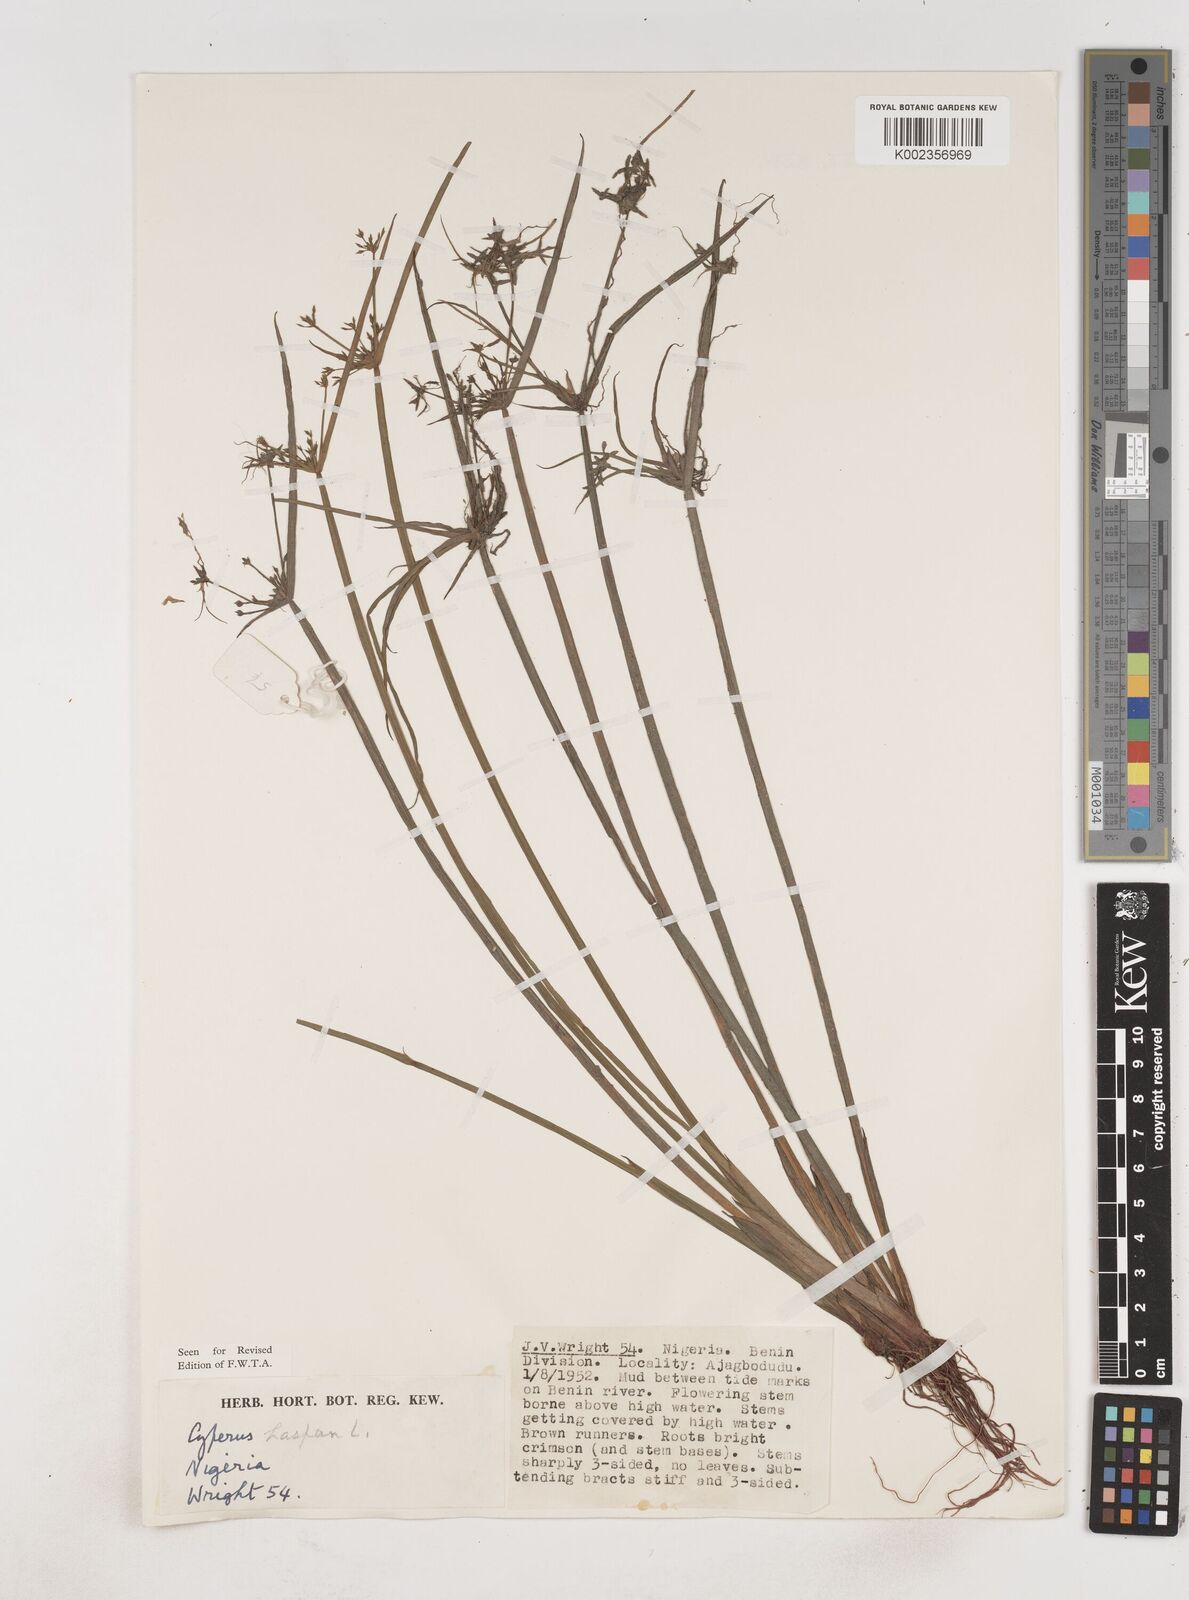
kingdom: Plantae
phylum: Tracheophyta
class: Liliopsida
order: Poales
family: Cyperaceae
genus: Cyperus
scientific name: Cyperus haspan
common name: Haspan flatsedge
